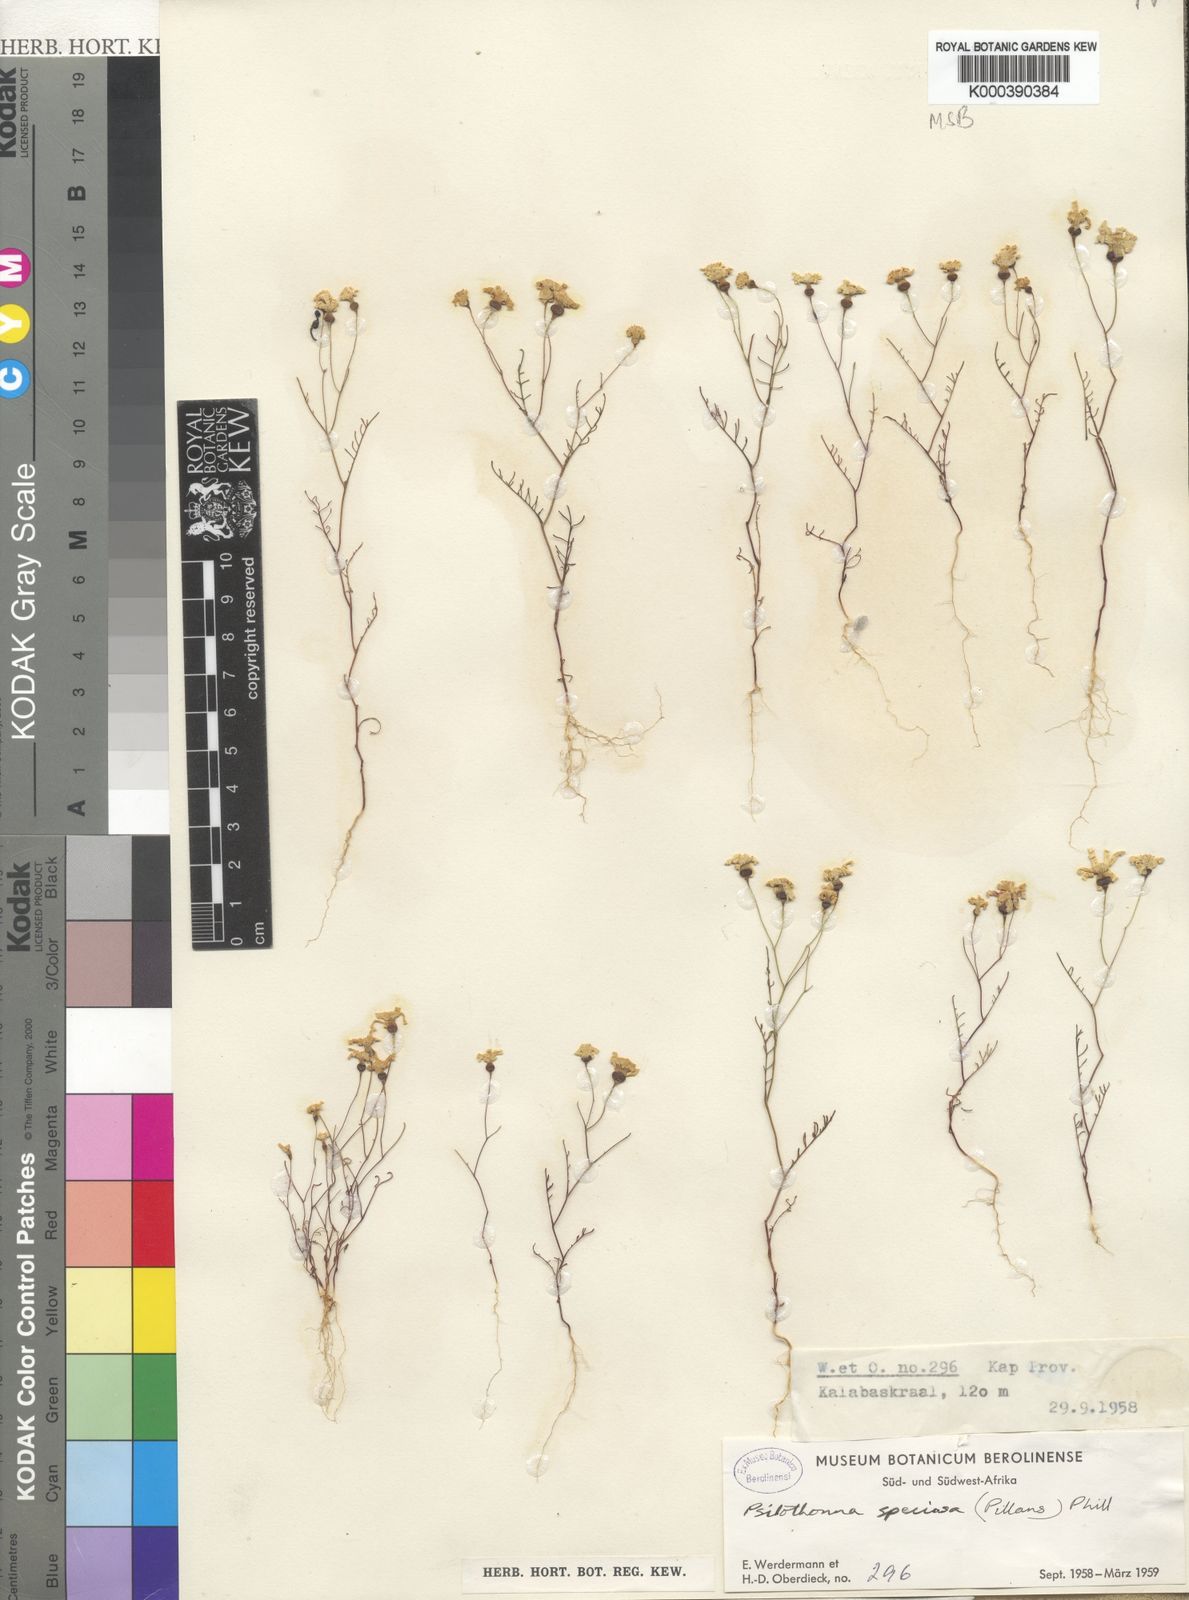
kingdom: Plantae
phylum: Tracheophyta
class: Magnoliopsida
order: Asterales
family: Asteraceae
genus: Steirodiscus
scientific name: Steirodiscus speciosus
